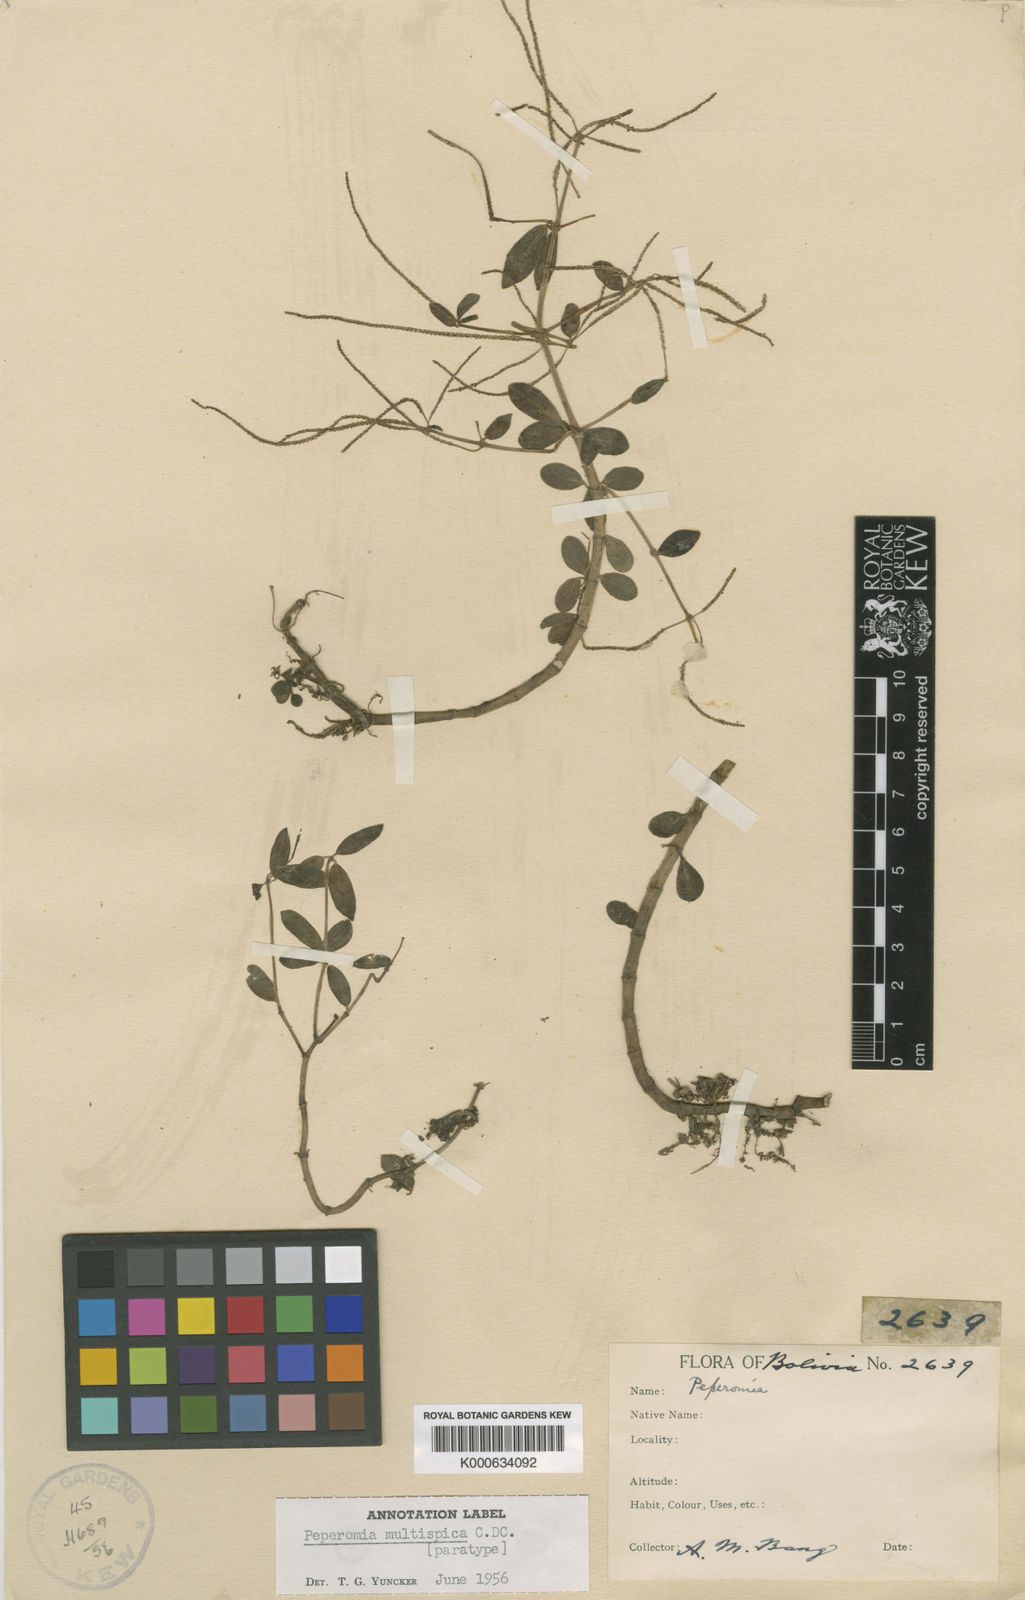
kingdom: Plantae
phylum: Tracheophyta
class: Magnoliopsida
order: Piperales
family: Piperaceae
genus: Peperomia
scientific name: Peperomia multispica
